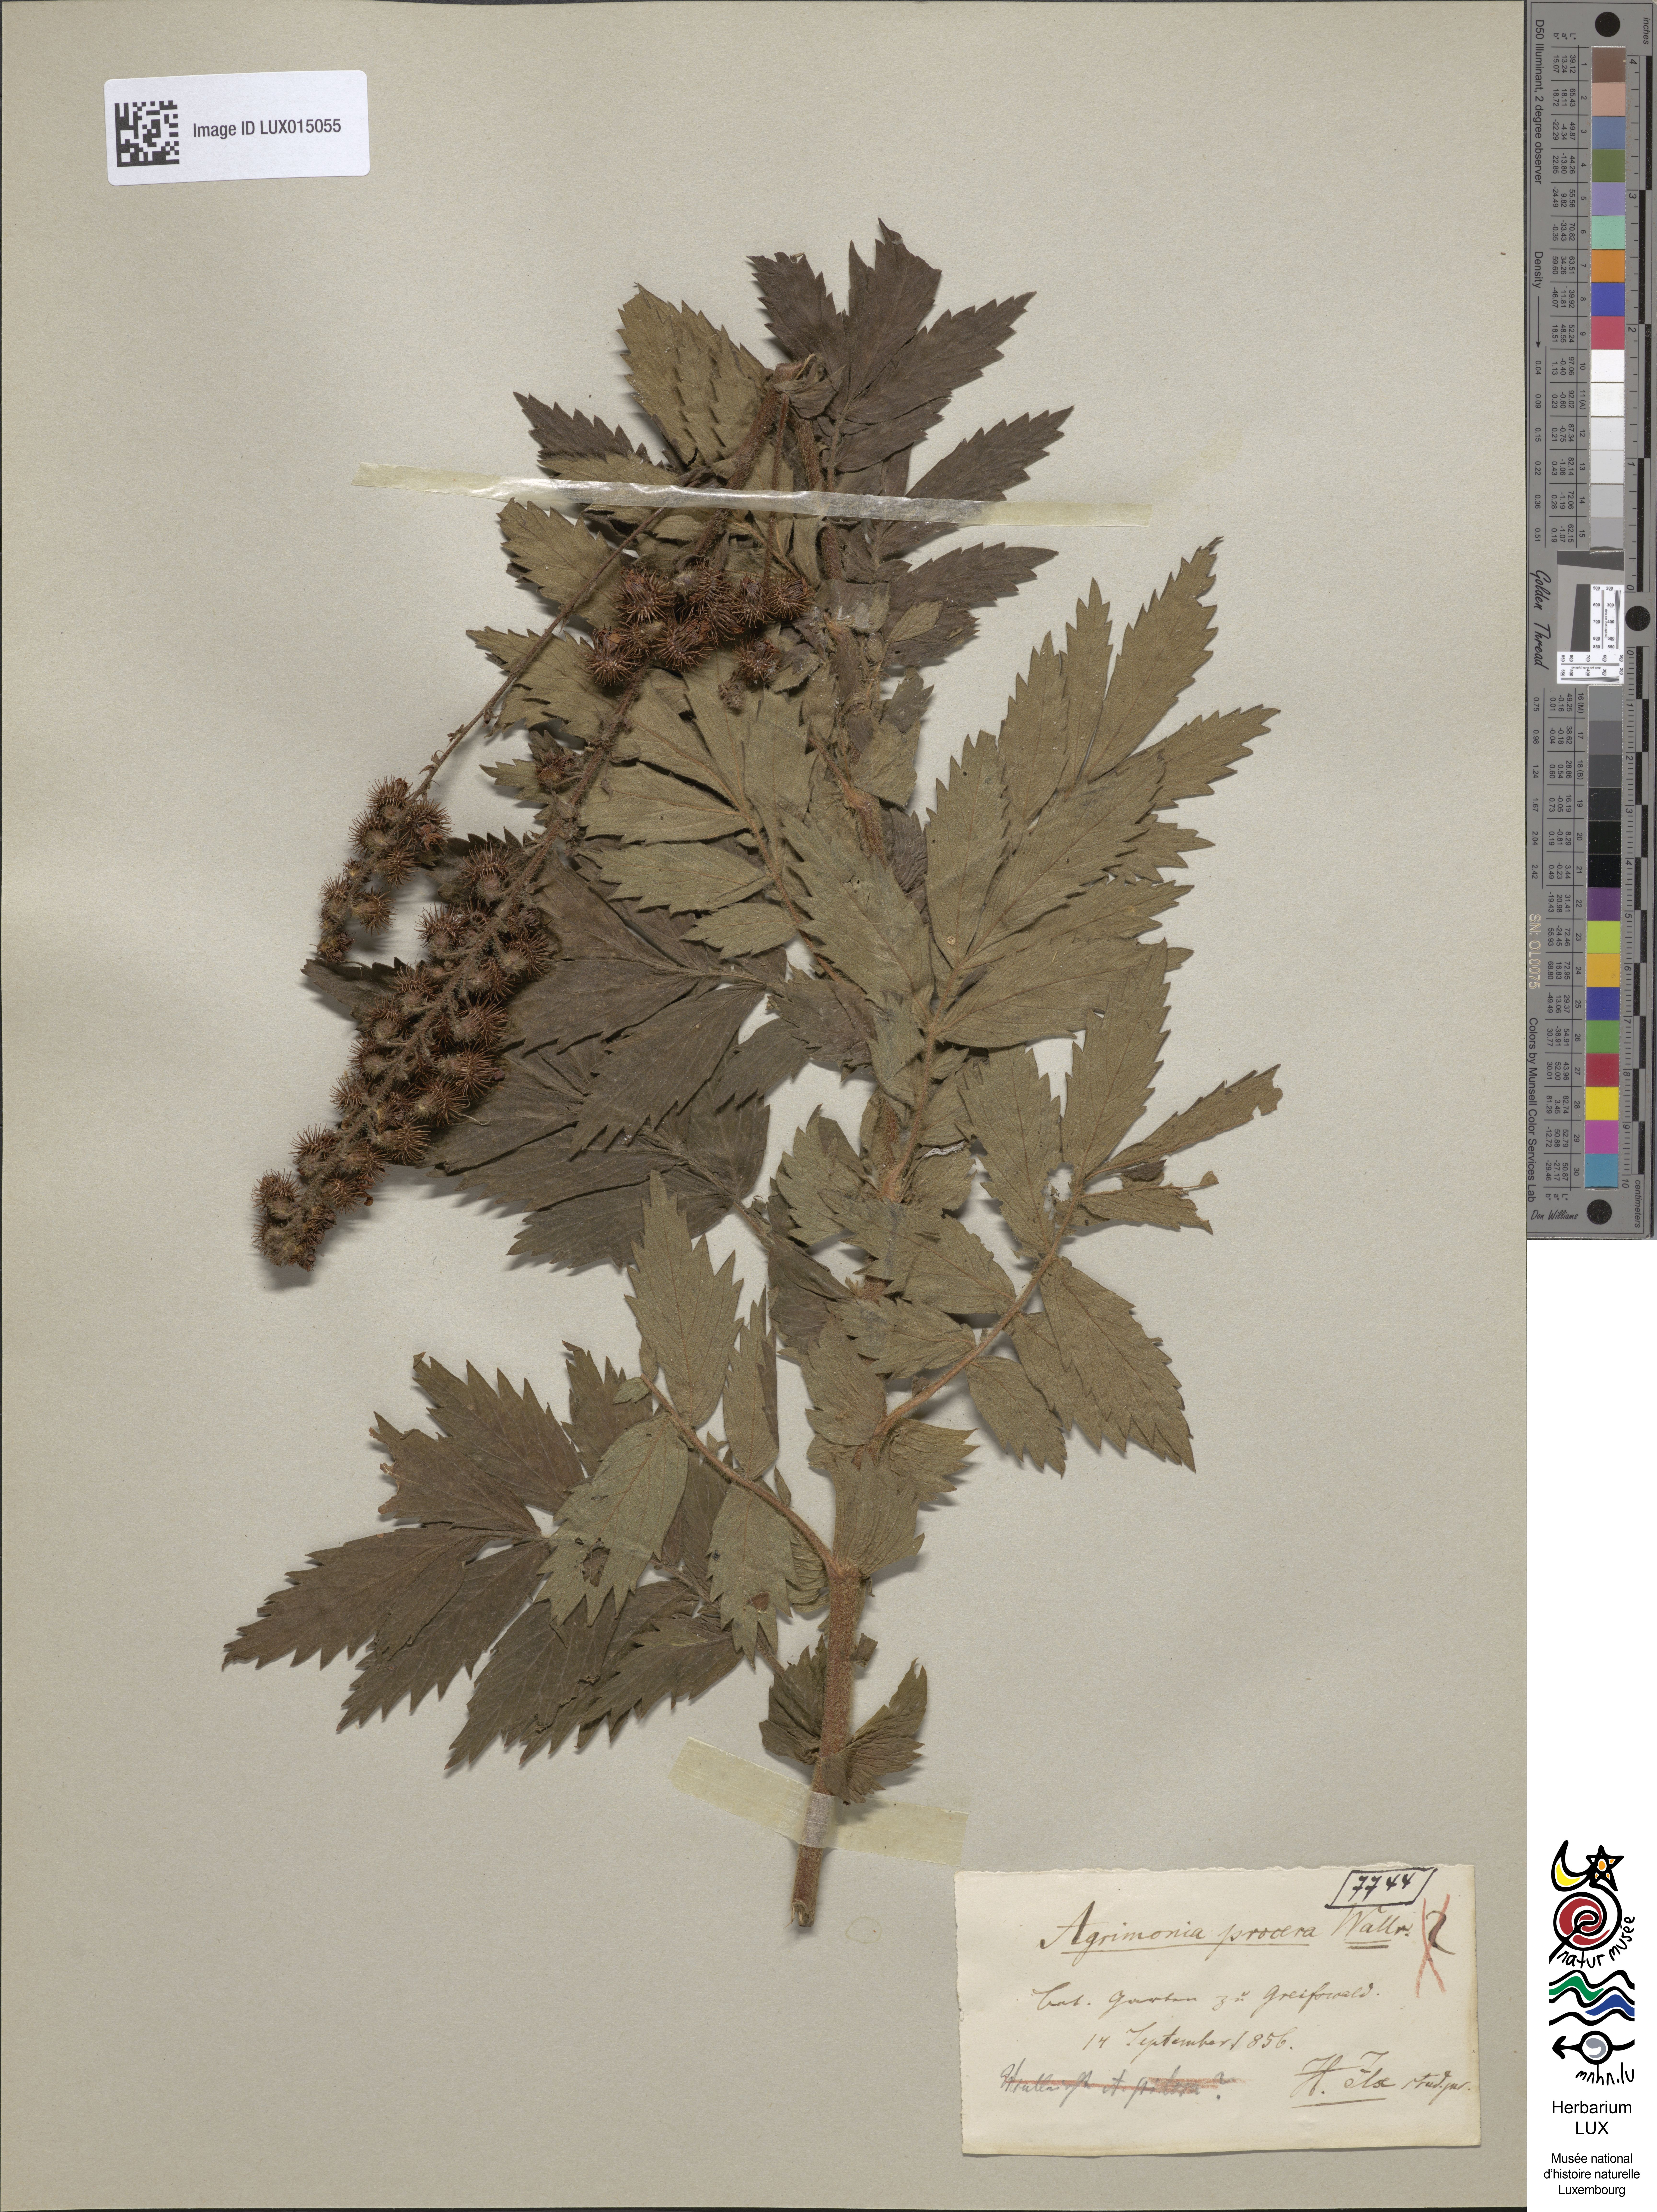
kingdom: Plantae
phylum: Tracheophyta
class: Magnoliopsida
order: Rosales
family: Rosaceae
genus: Agrimonia
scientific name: Agrimonia repens
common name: Creeping agrimony
